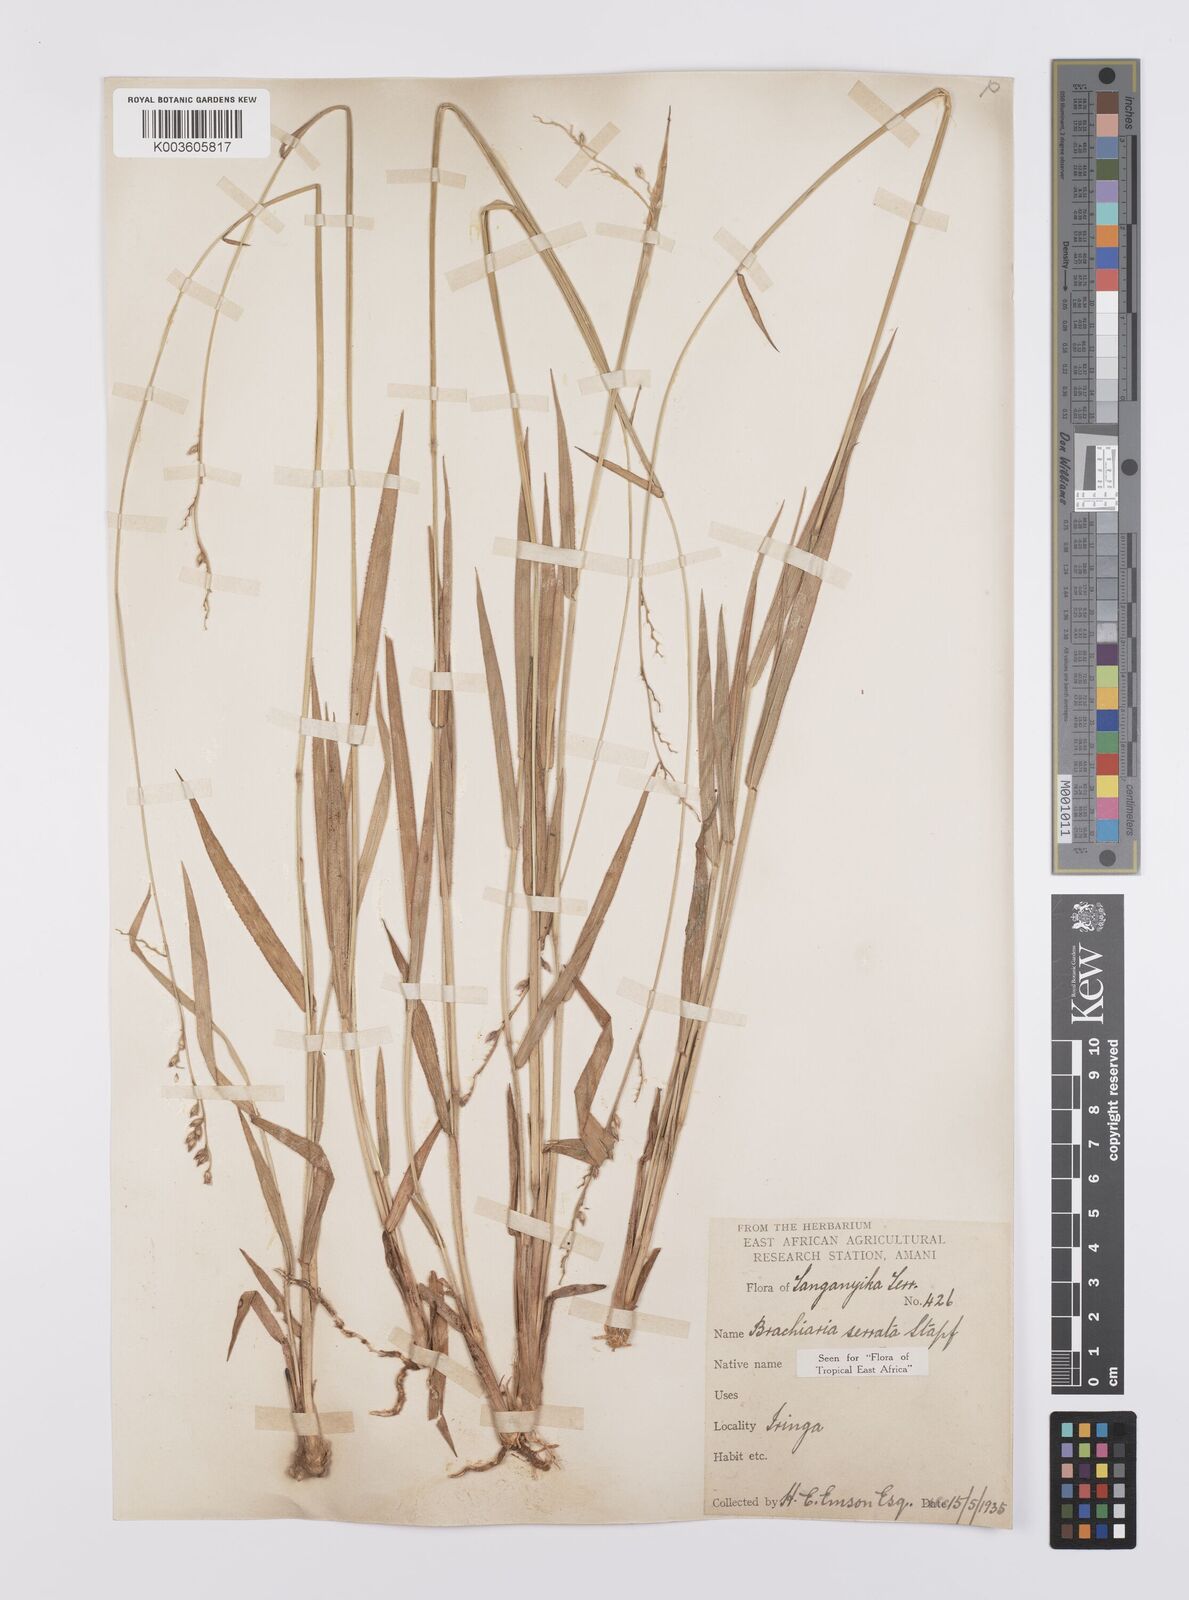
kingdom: Plantae
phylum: Tracheophyta
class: Liliopsida
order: Poales
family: Poaceae
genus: Urochloa
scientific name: Urochloa serrata
